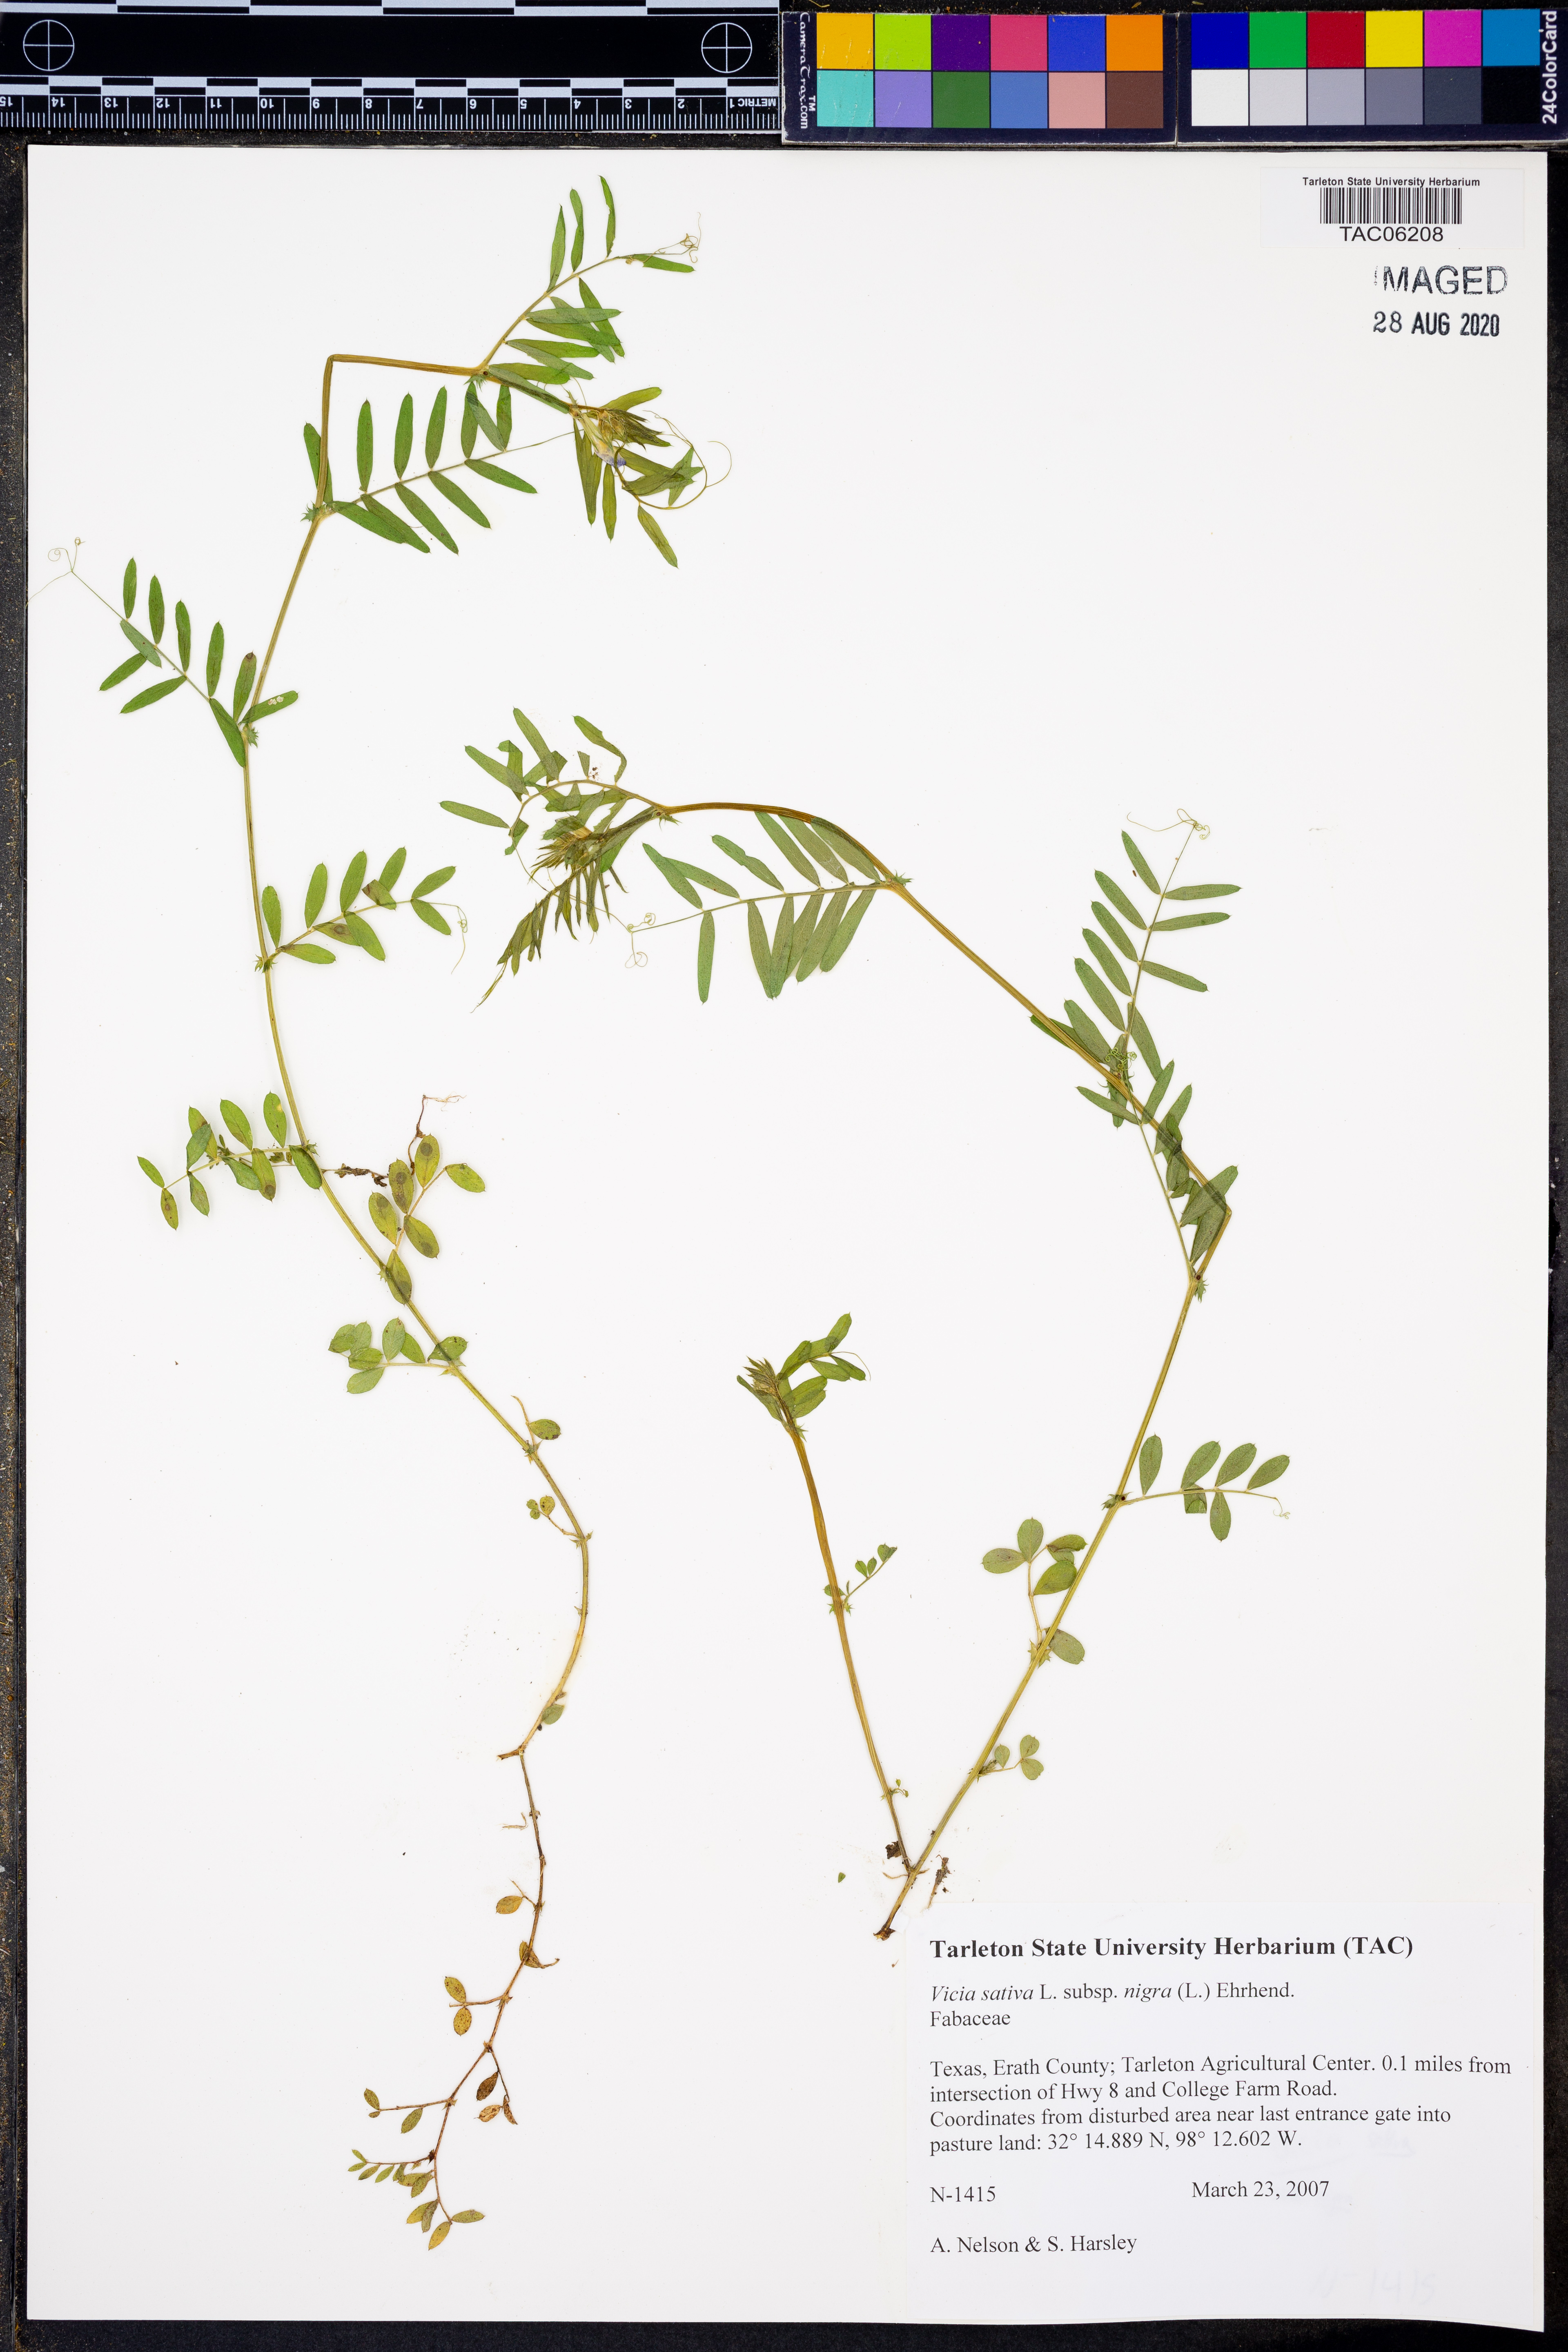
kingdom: Plantae
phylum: Tracheophyta
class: Magnoliopsida
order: Fabales
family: Fabaceae
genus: Vicia
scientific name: Vicia sativa
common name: Garden vetch
